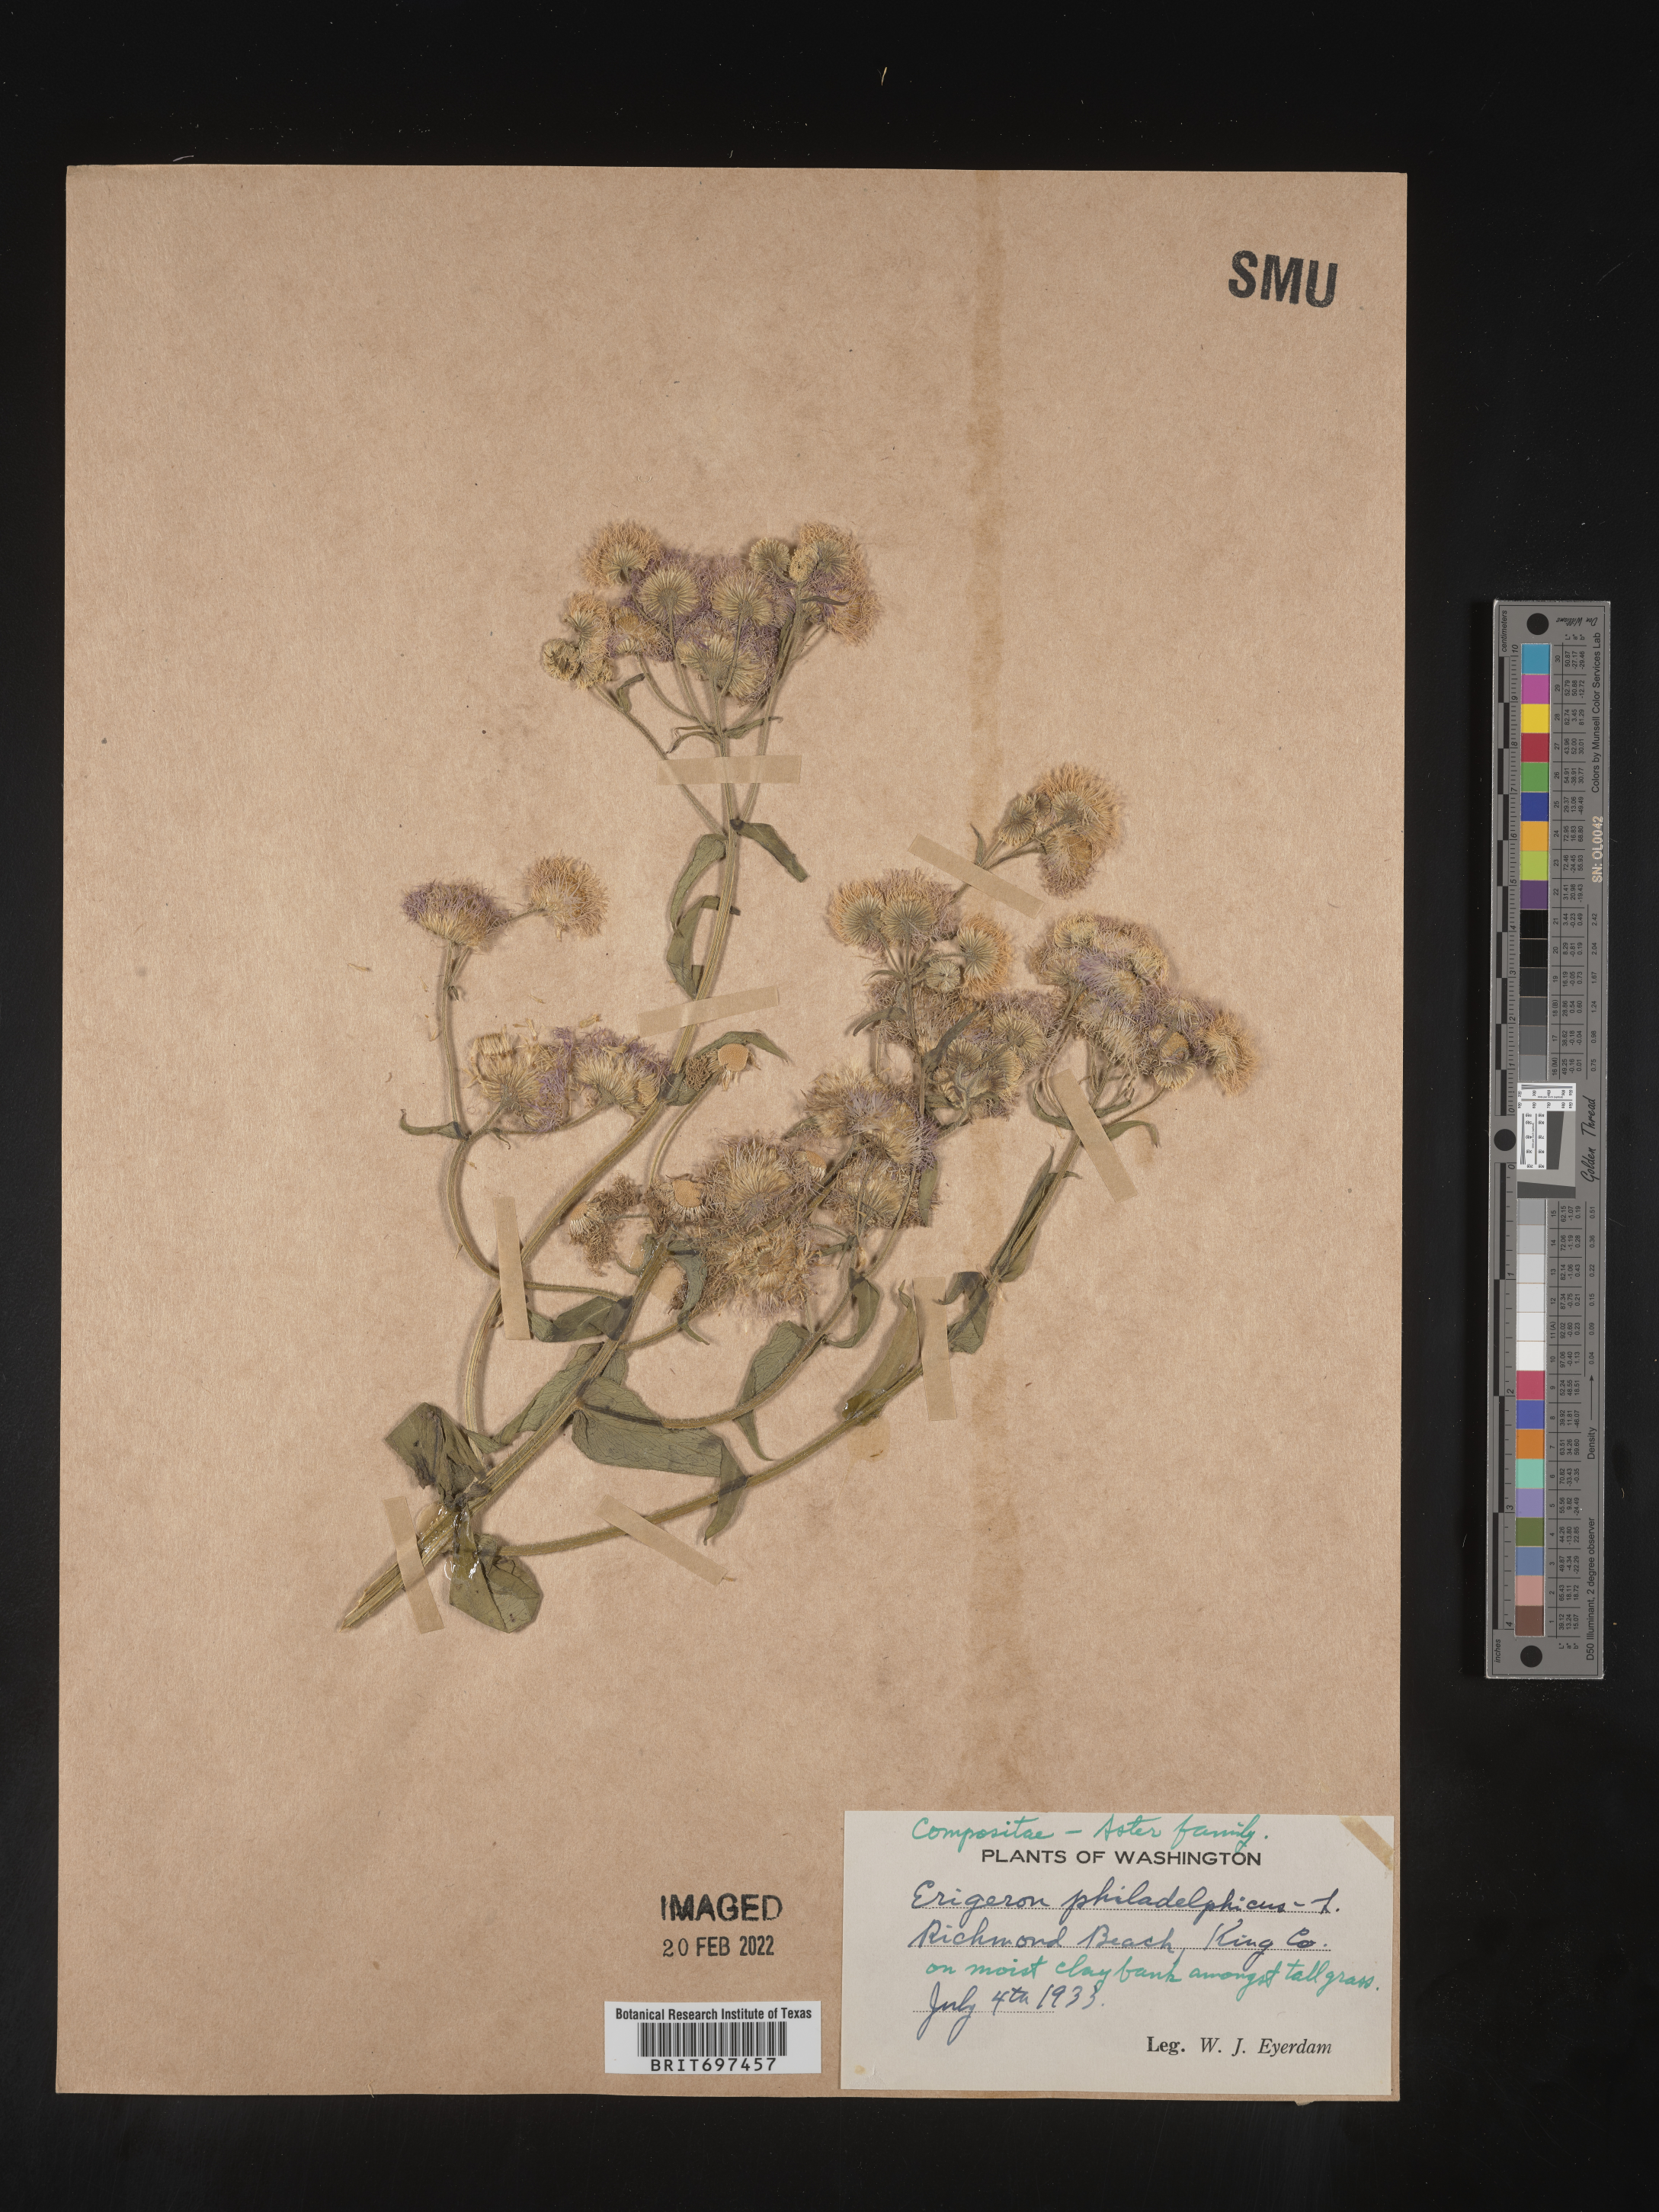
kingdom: Plantae
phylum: Tracheophyta
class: Magnoliopsida
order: Asterales
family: Asteraceae
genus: Erigeron
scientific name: Erigeron philadelphicus
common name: Robin's-plantain
